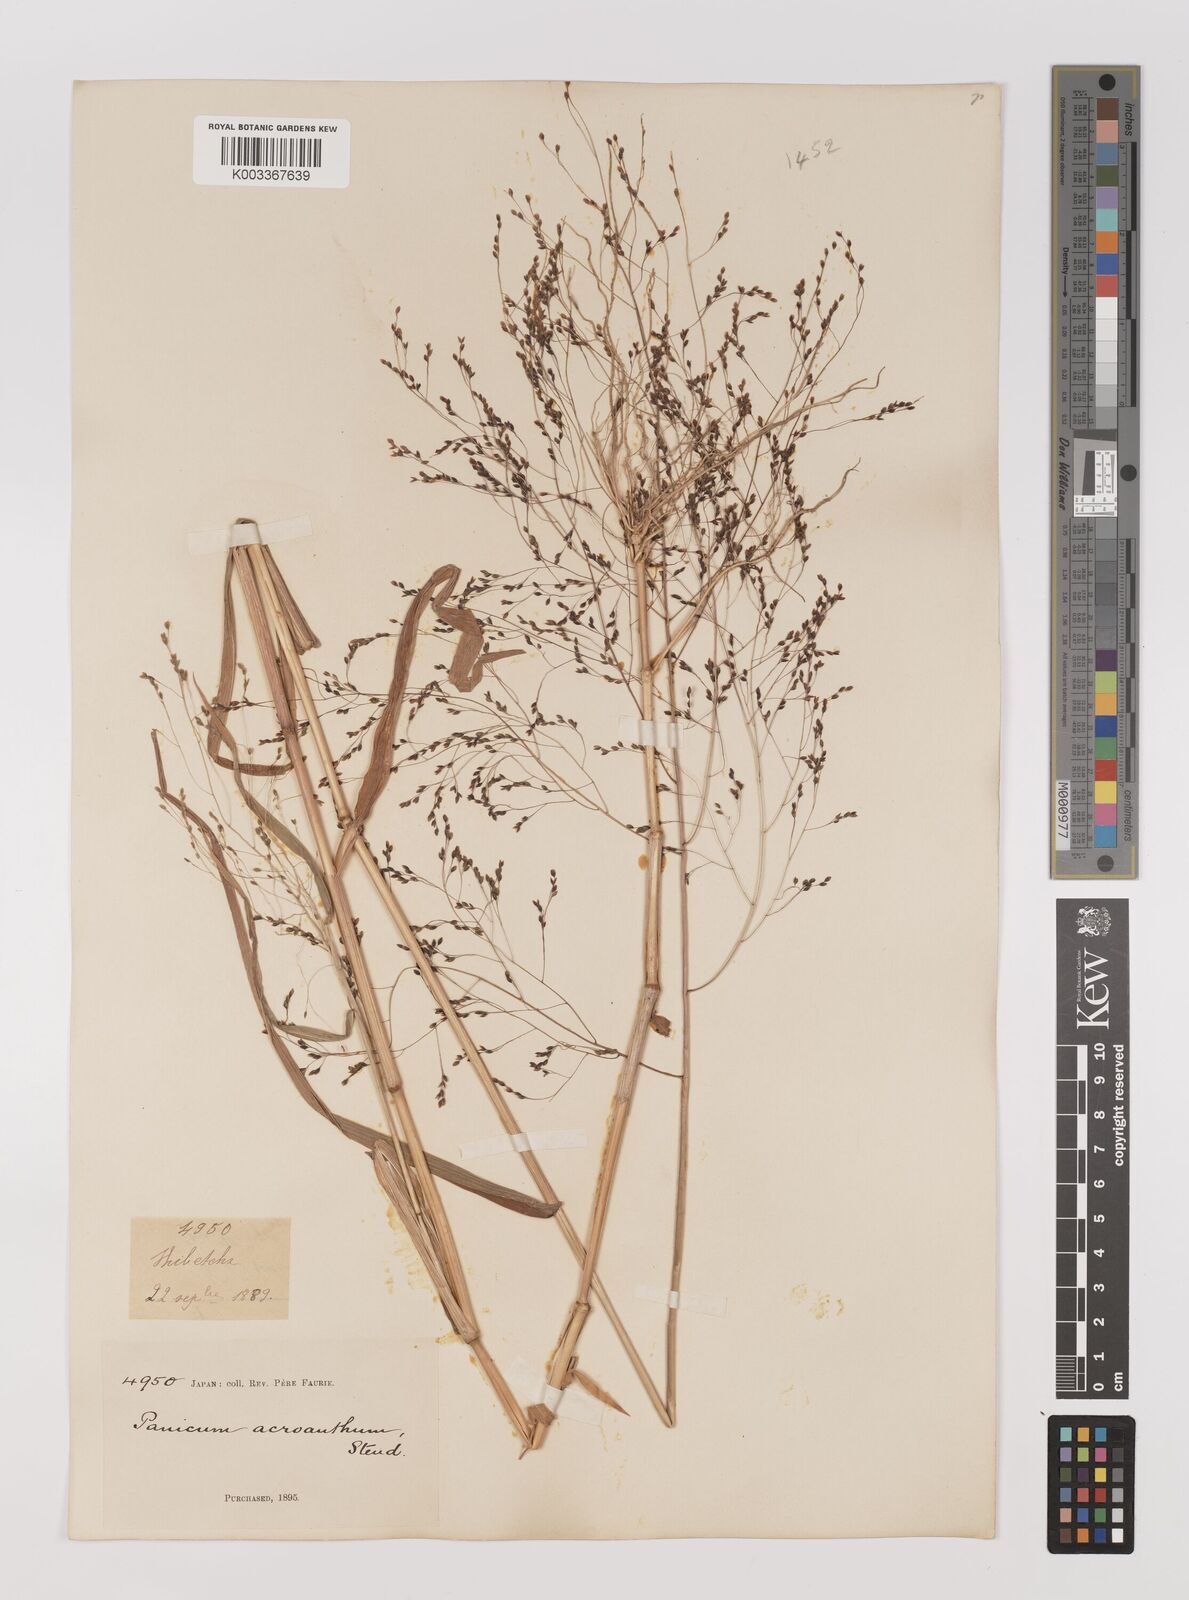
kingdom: Plantae
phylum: Tracheophyta
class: Liliopsida
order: Poales
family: Poaceae
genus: Panicum
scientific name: Panicum bisulcatum
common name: Japanese panicgrass
